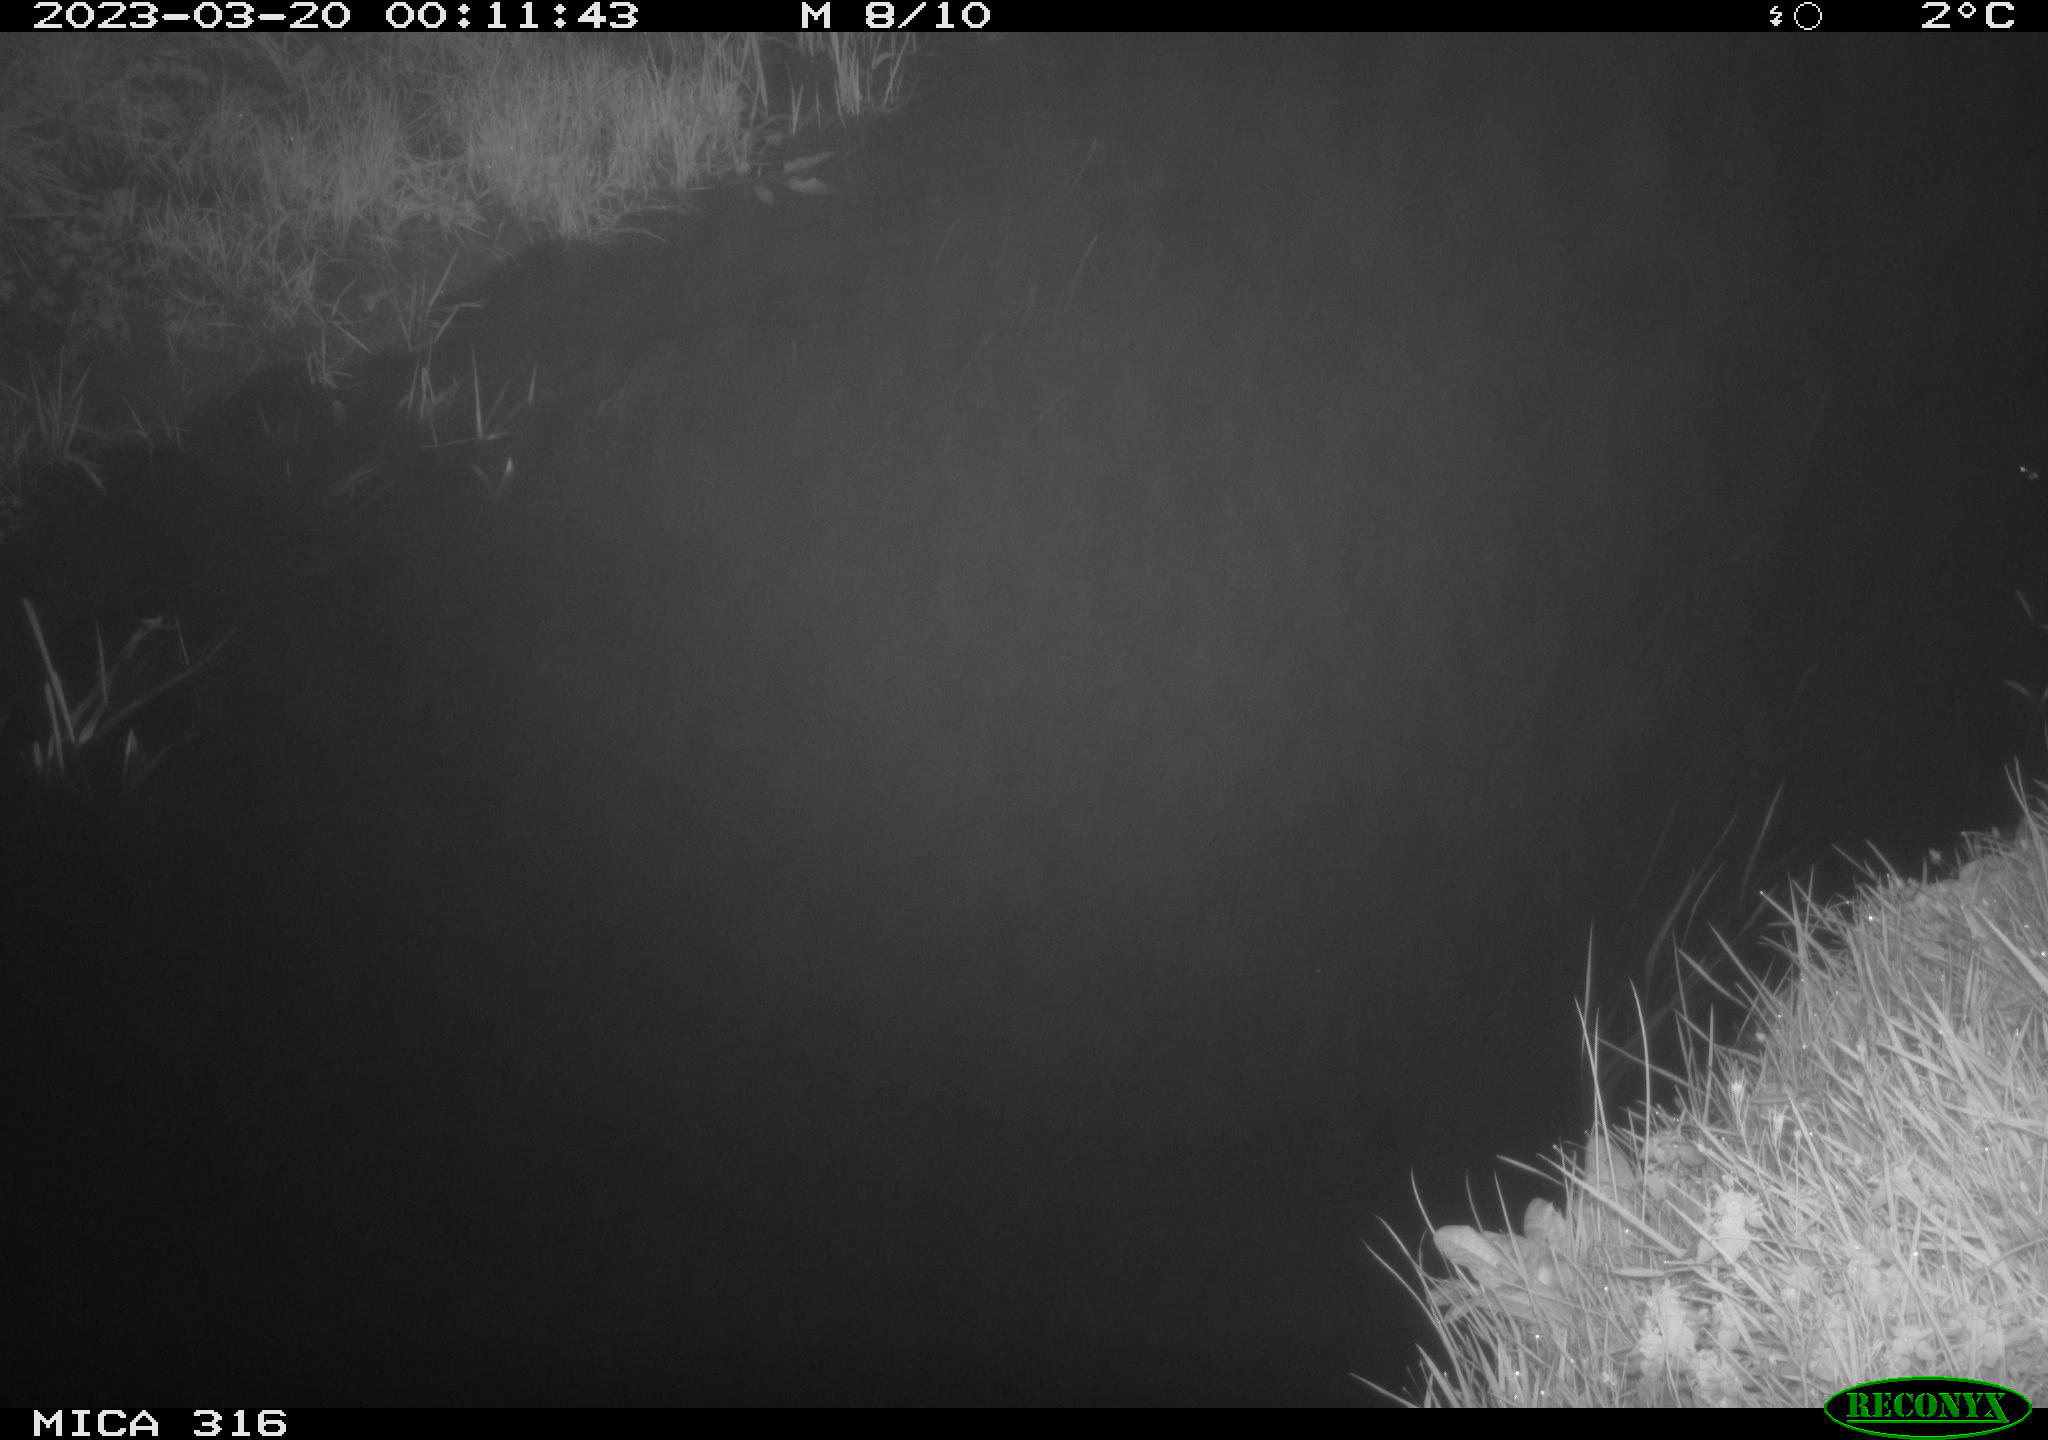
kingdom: Animalia
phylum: Chordata
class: Aves
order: Anseriformes
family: Anatidae
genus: Anas
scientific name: Anas
